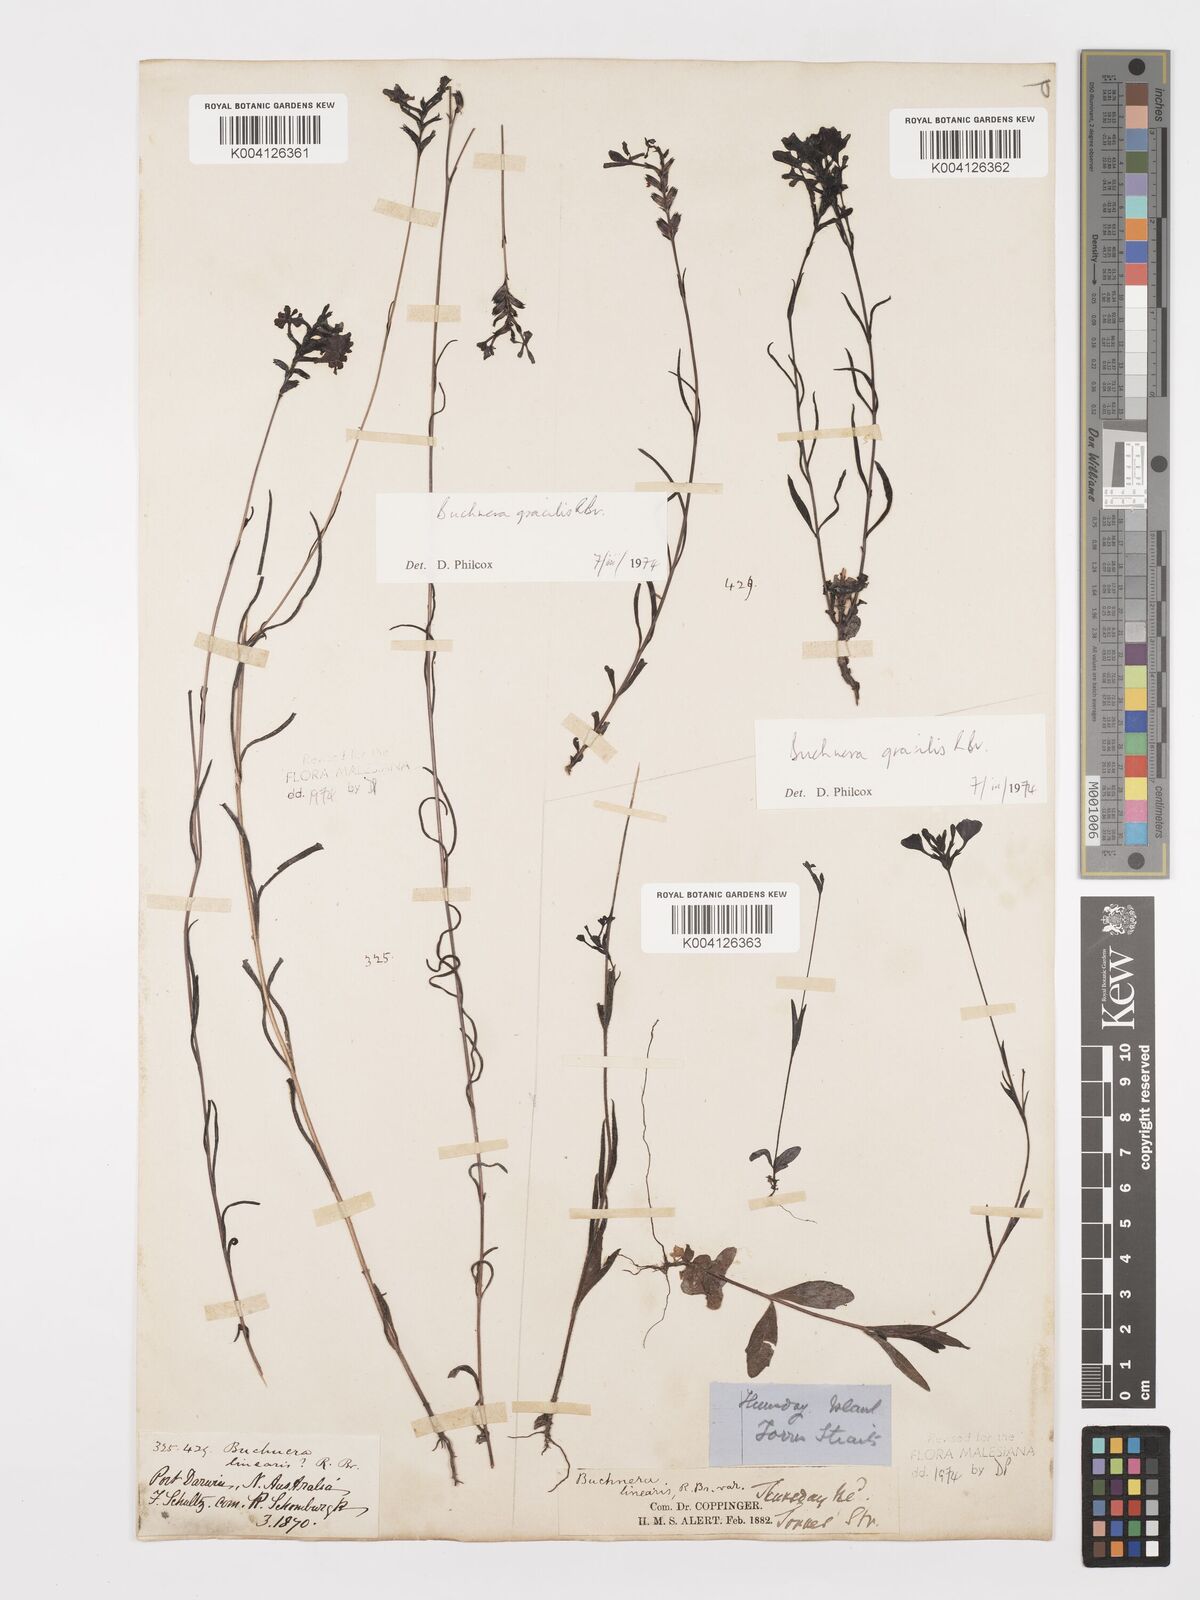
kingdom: Plantae
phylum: Tracheophyta
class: Magnoliopsida
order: Lamiales
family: Orobanchaceae
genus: Buchnera
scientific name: Buchnera gracilis
